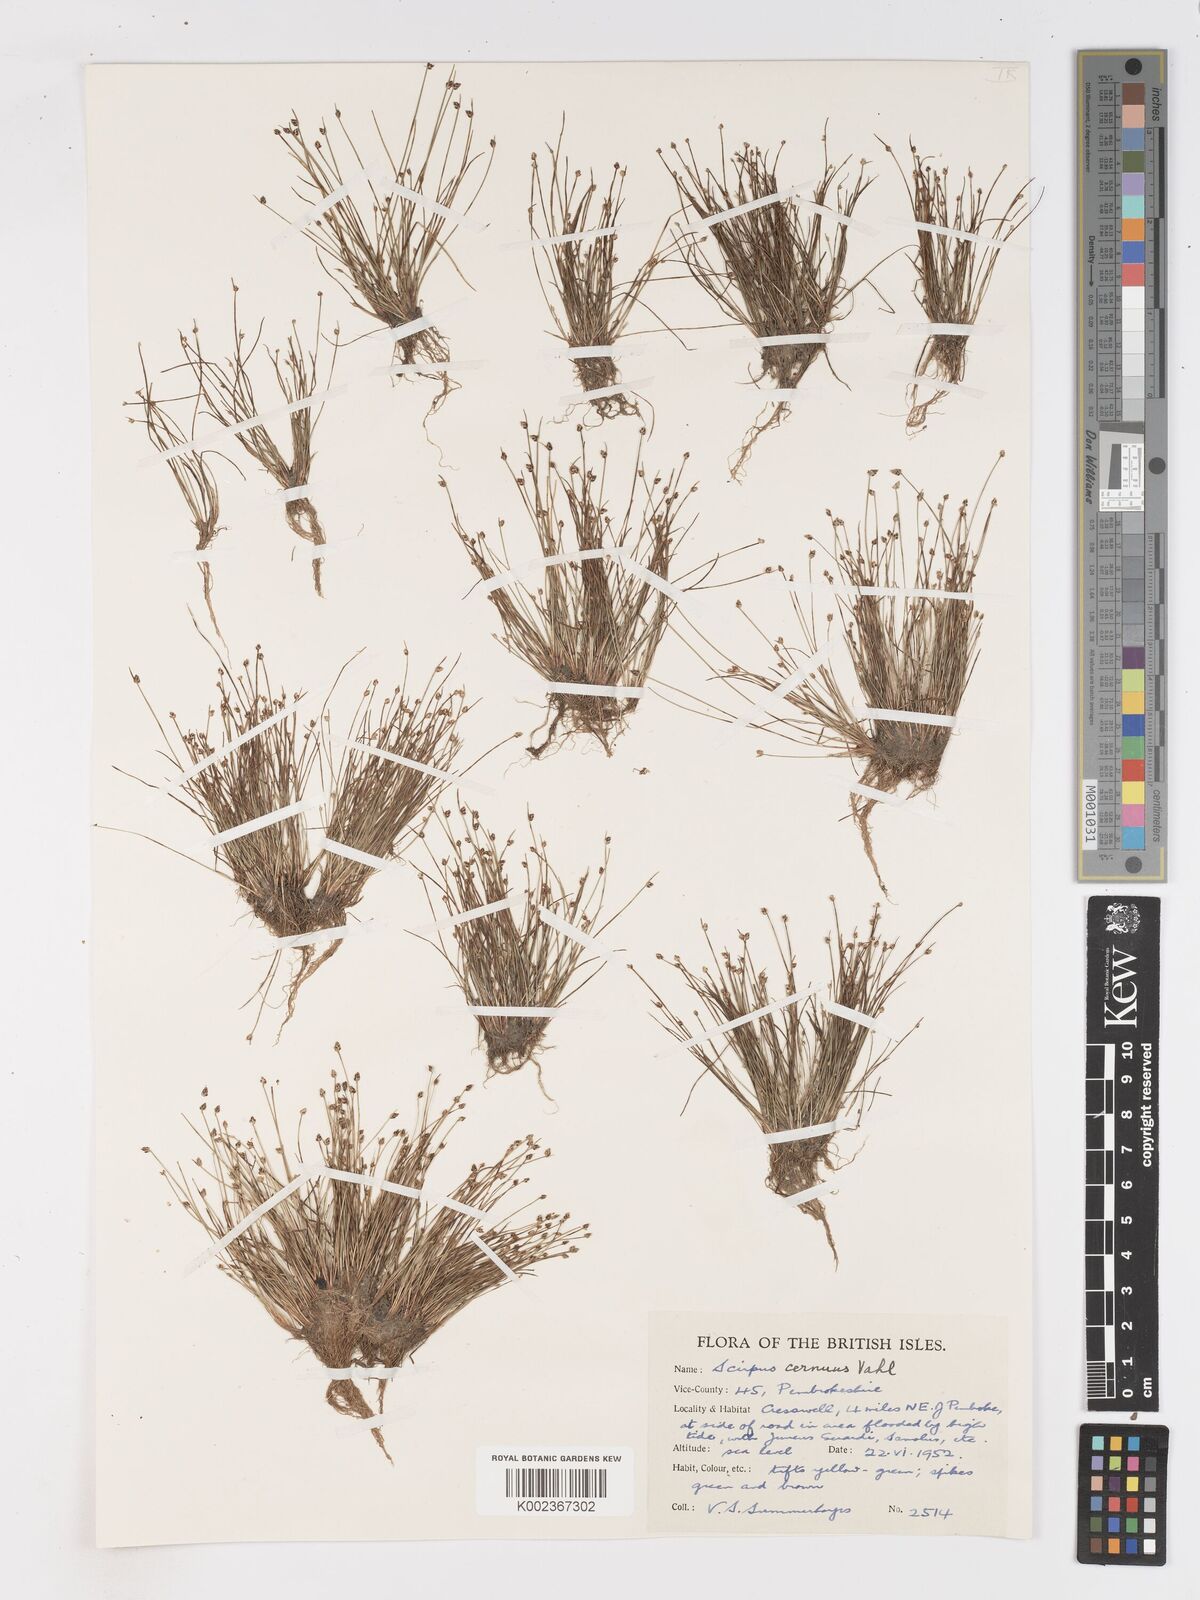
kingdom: Plantae
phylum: Tracheophyta
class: Liliopsida
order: Poales
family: Cyperaceae
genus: Isolepis
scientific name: Isolepis cernua
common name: Slender club-rush
